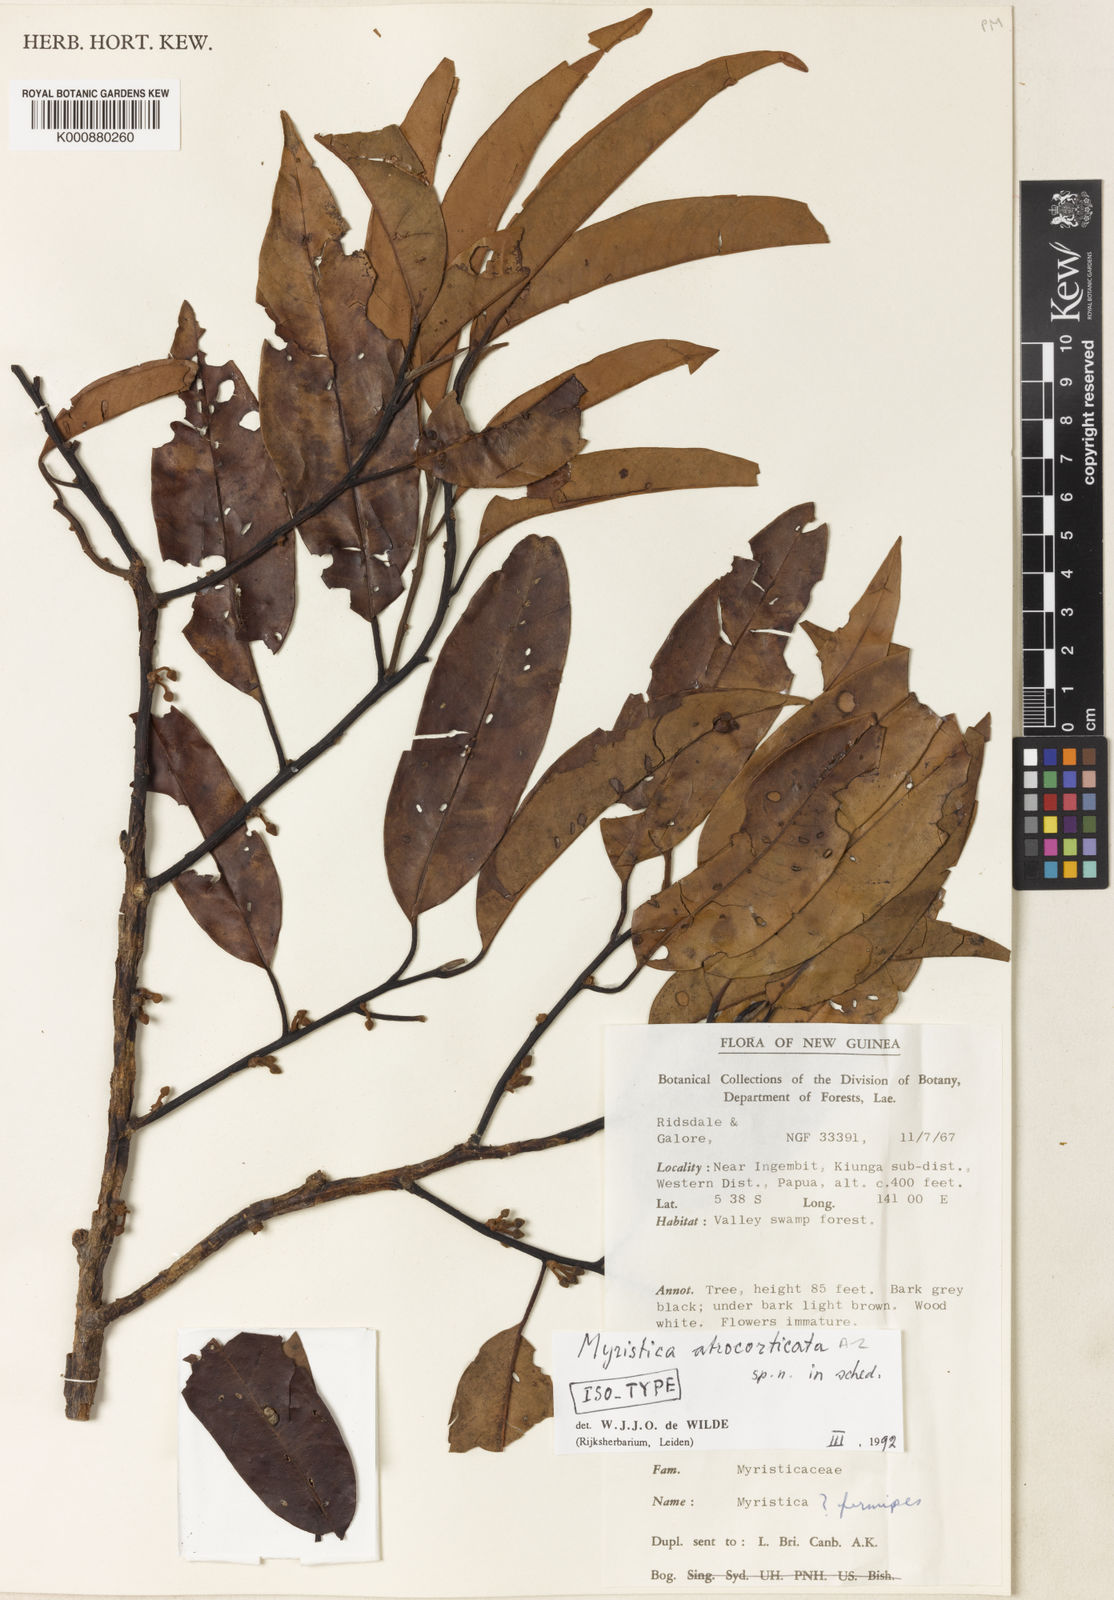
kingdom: Plantae
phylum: Tracheophyta
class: Magnoliopsida
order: Magnoliales
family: Myristicaceae
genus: Myristica
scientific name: Myristica atrocorticata
